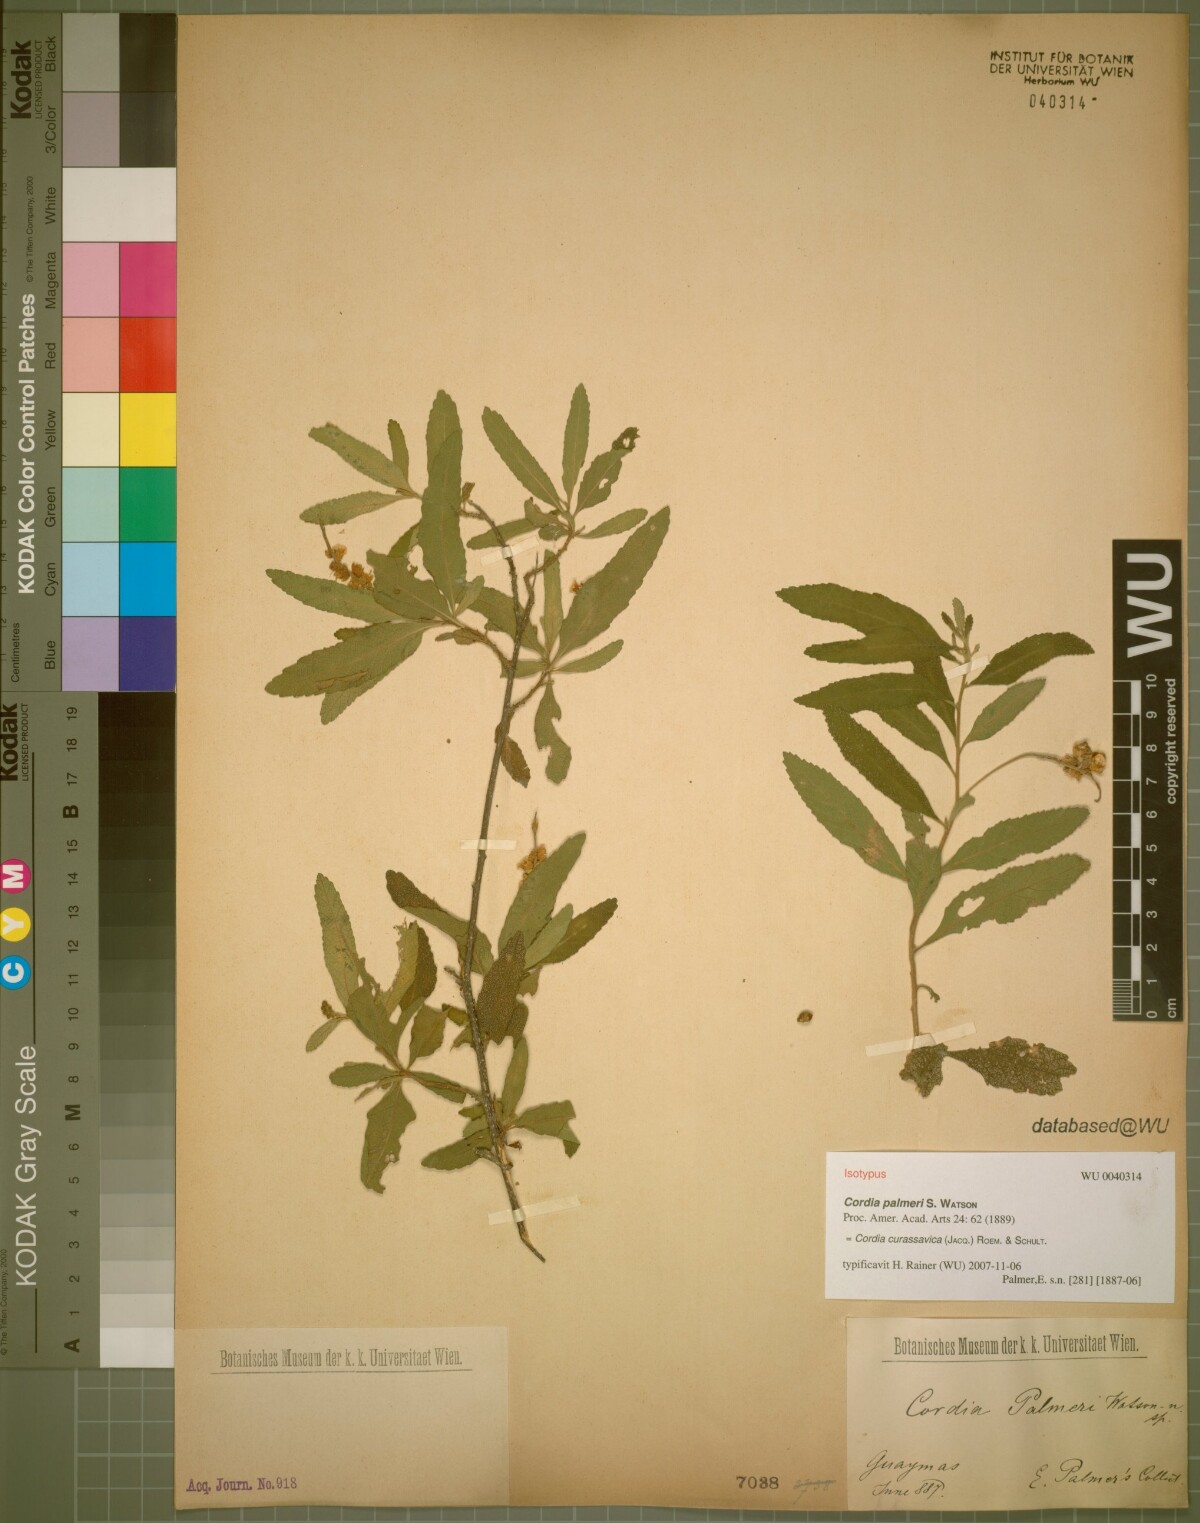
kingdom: Plantae
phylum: Tracheophyta
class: Magnoliopsida
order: Boraginales
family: Cordiaceae
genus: Varronia
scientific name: Varronia curassavica
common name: Black sage
